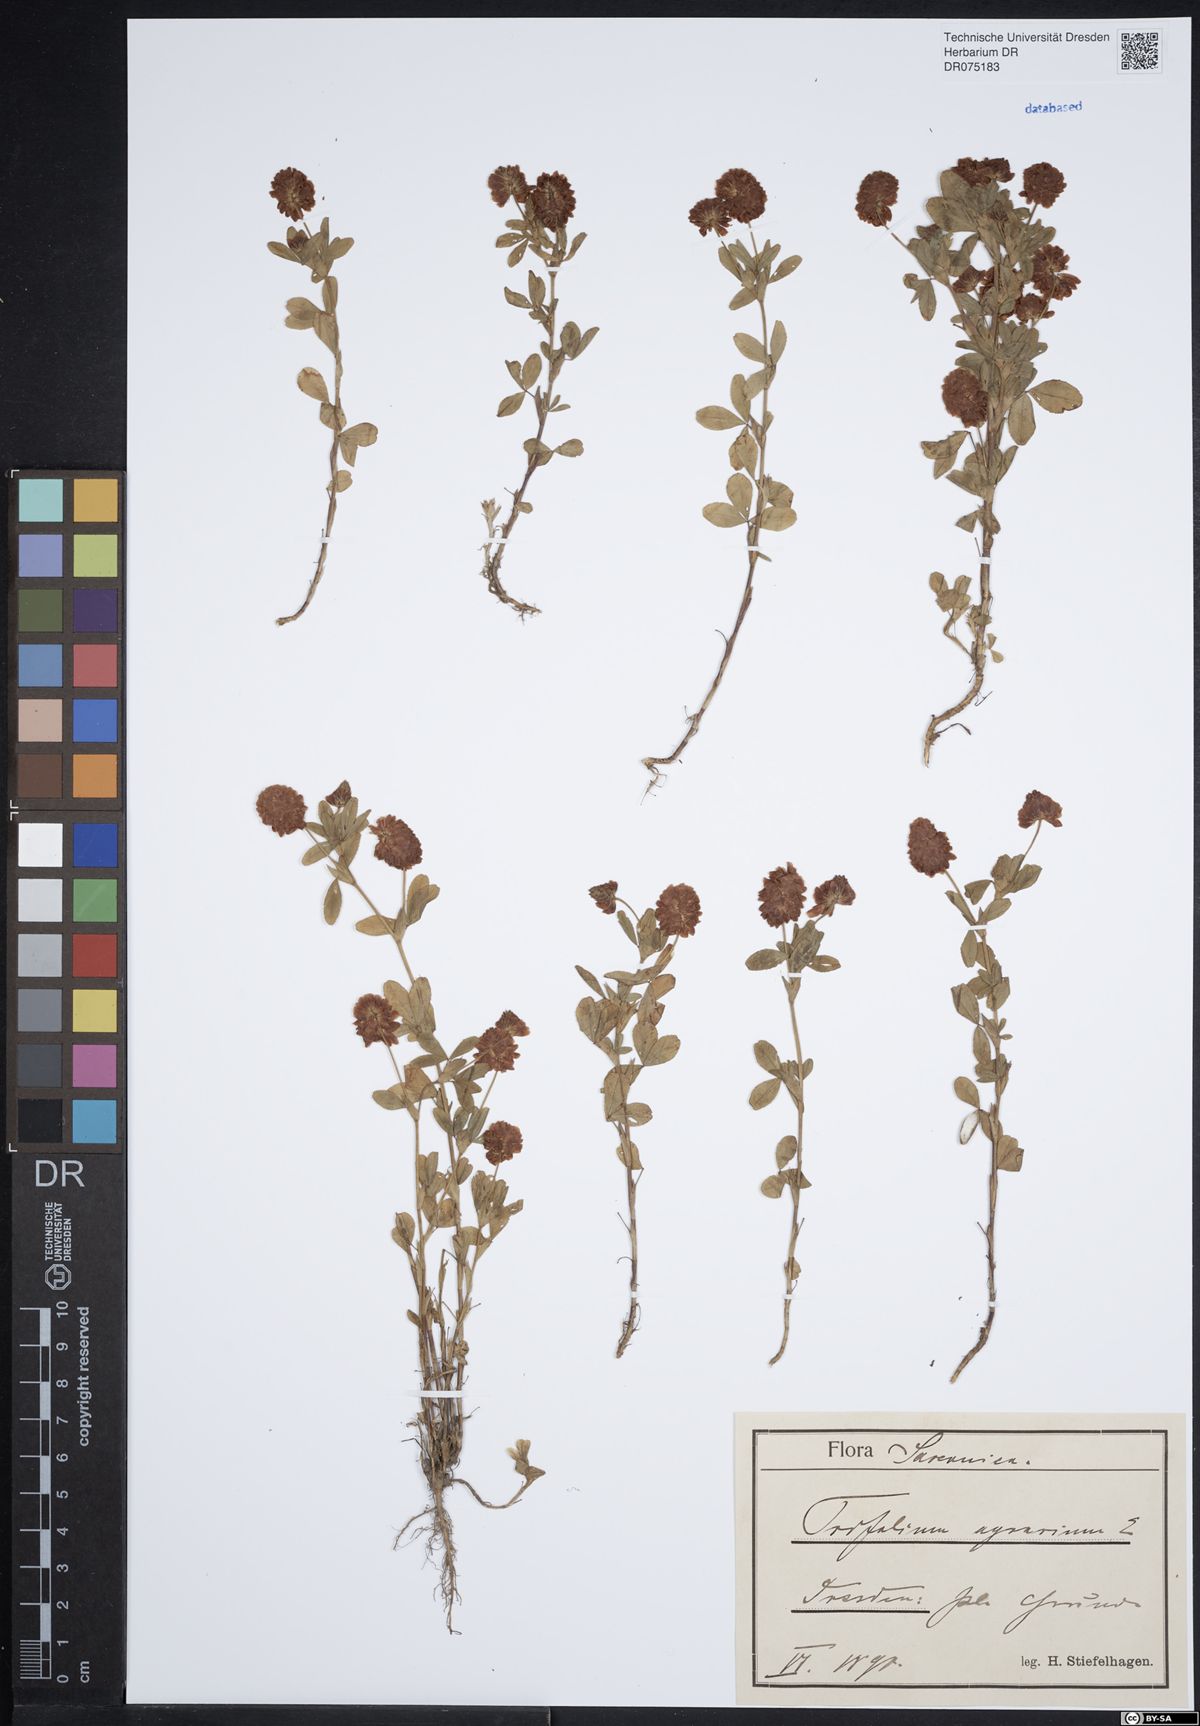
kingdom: Plantae
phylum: Tracheophyta
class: Magnoliopsida
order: Fabales
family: Fabaceae
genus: Trifolium
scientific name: Trifolium aureum
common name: Golden clover
